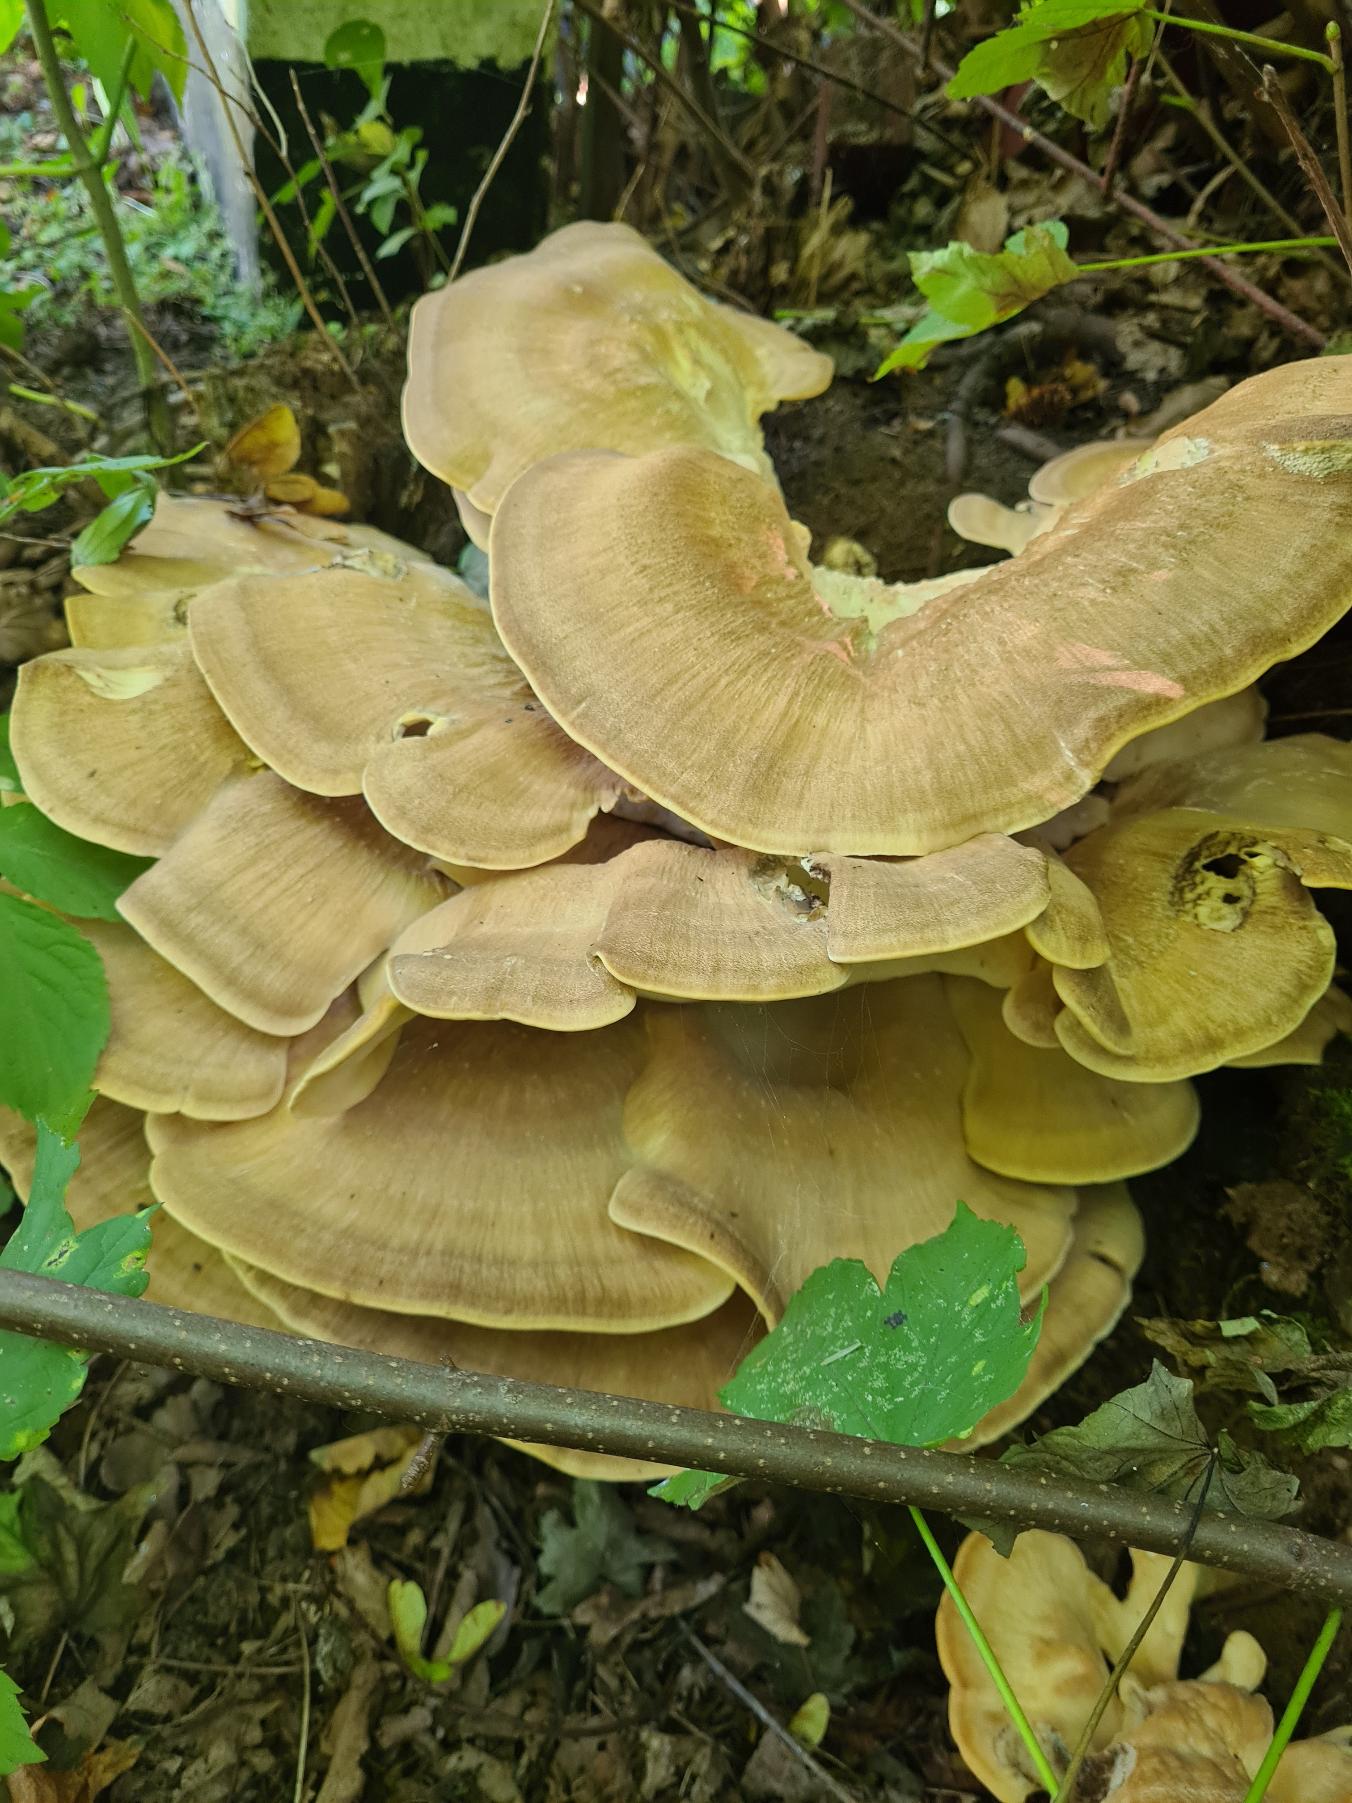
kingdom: Fungi
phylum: Basidiomycota
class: Agaricomycetes
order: Polyporales
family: Meripilaceae
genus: Meripilus
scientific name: Meripilus giganteus
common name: Kæmpeporesvamp
